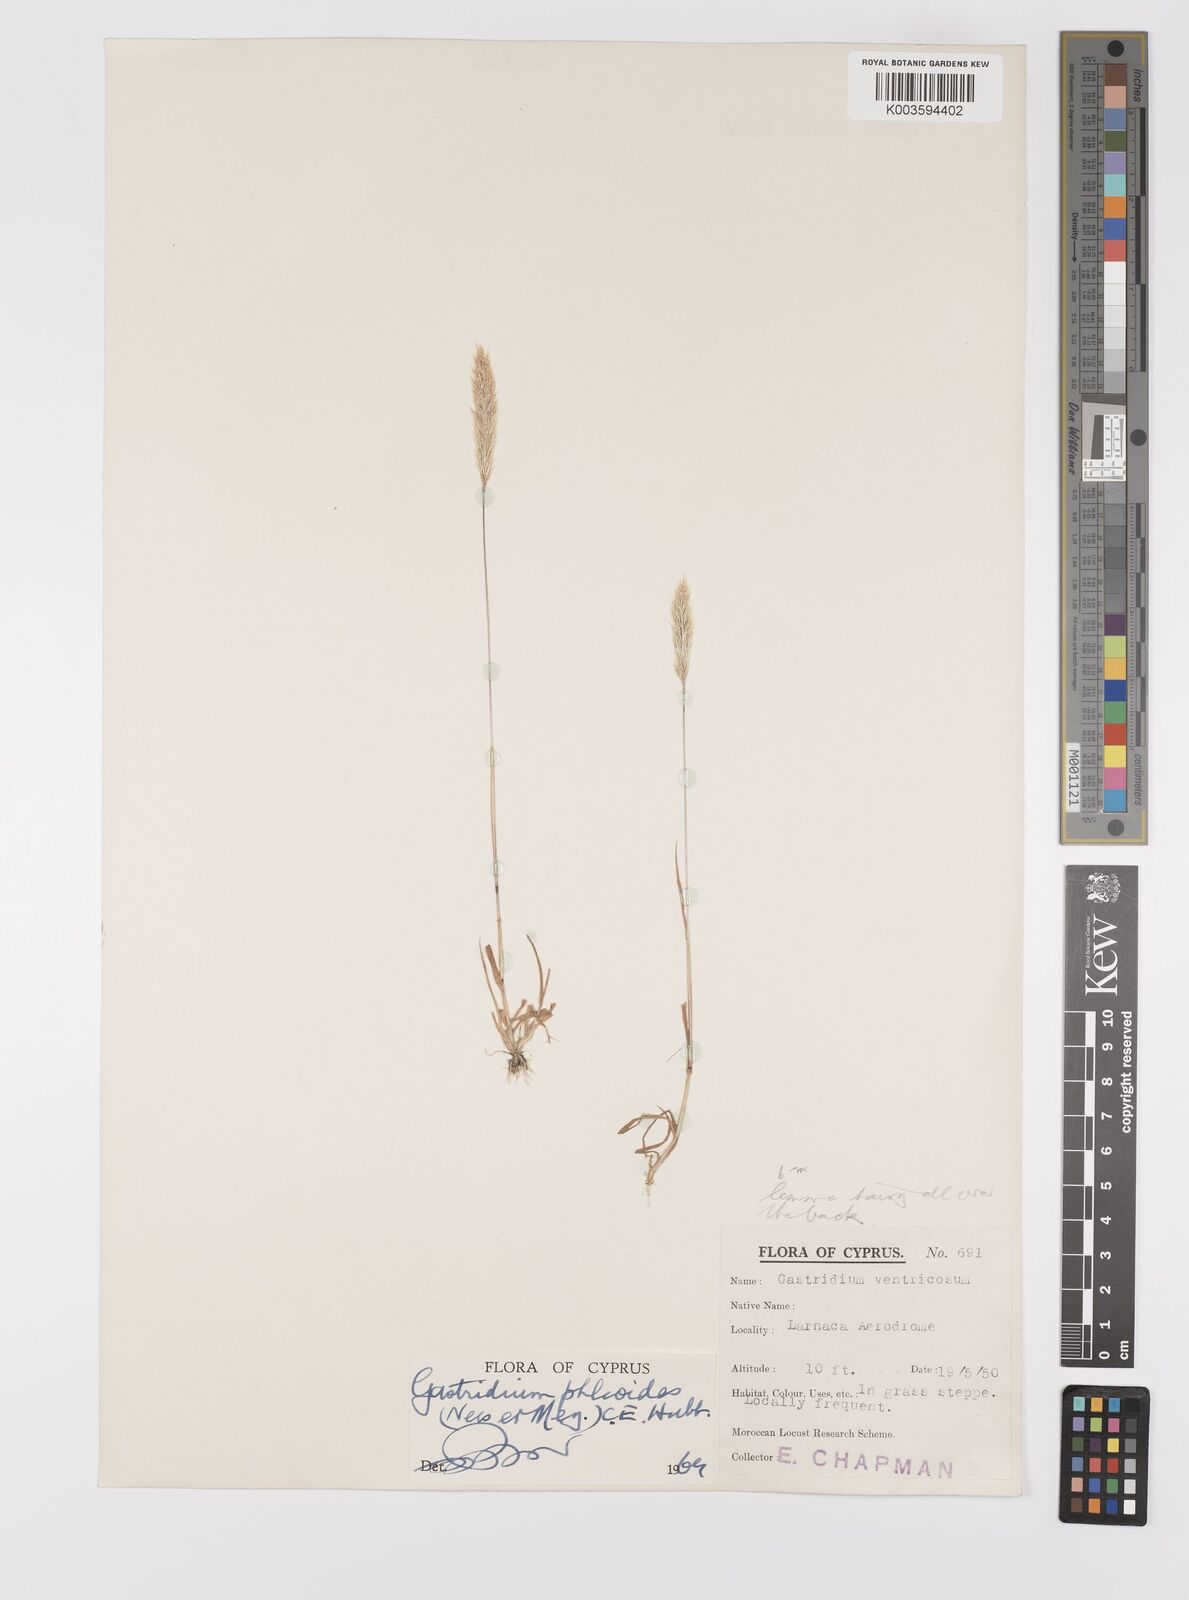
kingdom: Plantae
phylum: Tracheophyta
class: Liliopsida
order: Poales
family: Poaceae
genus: Gastridium
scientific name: Gastridium phleoides
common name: Nit grass
